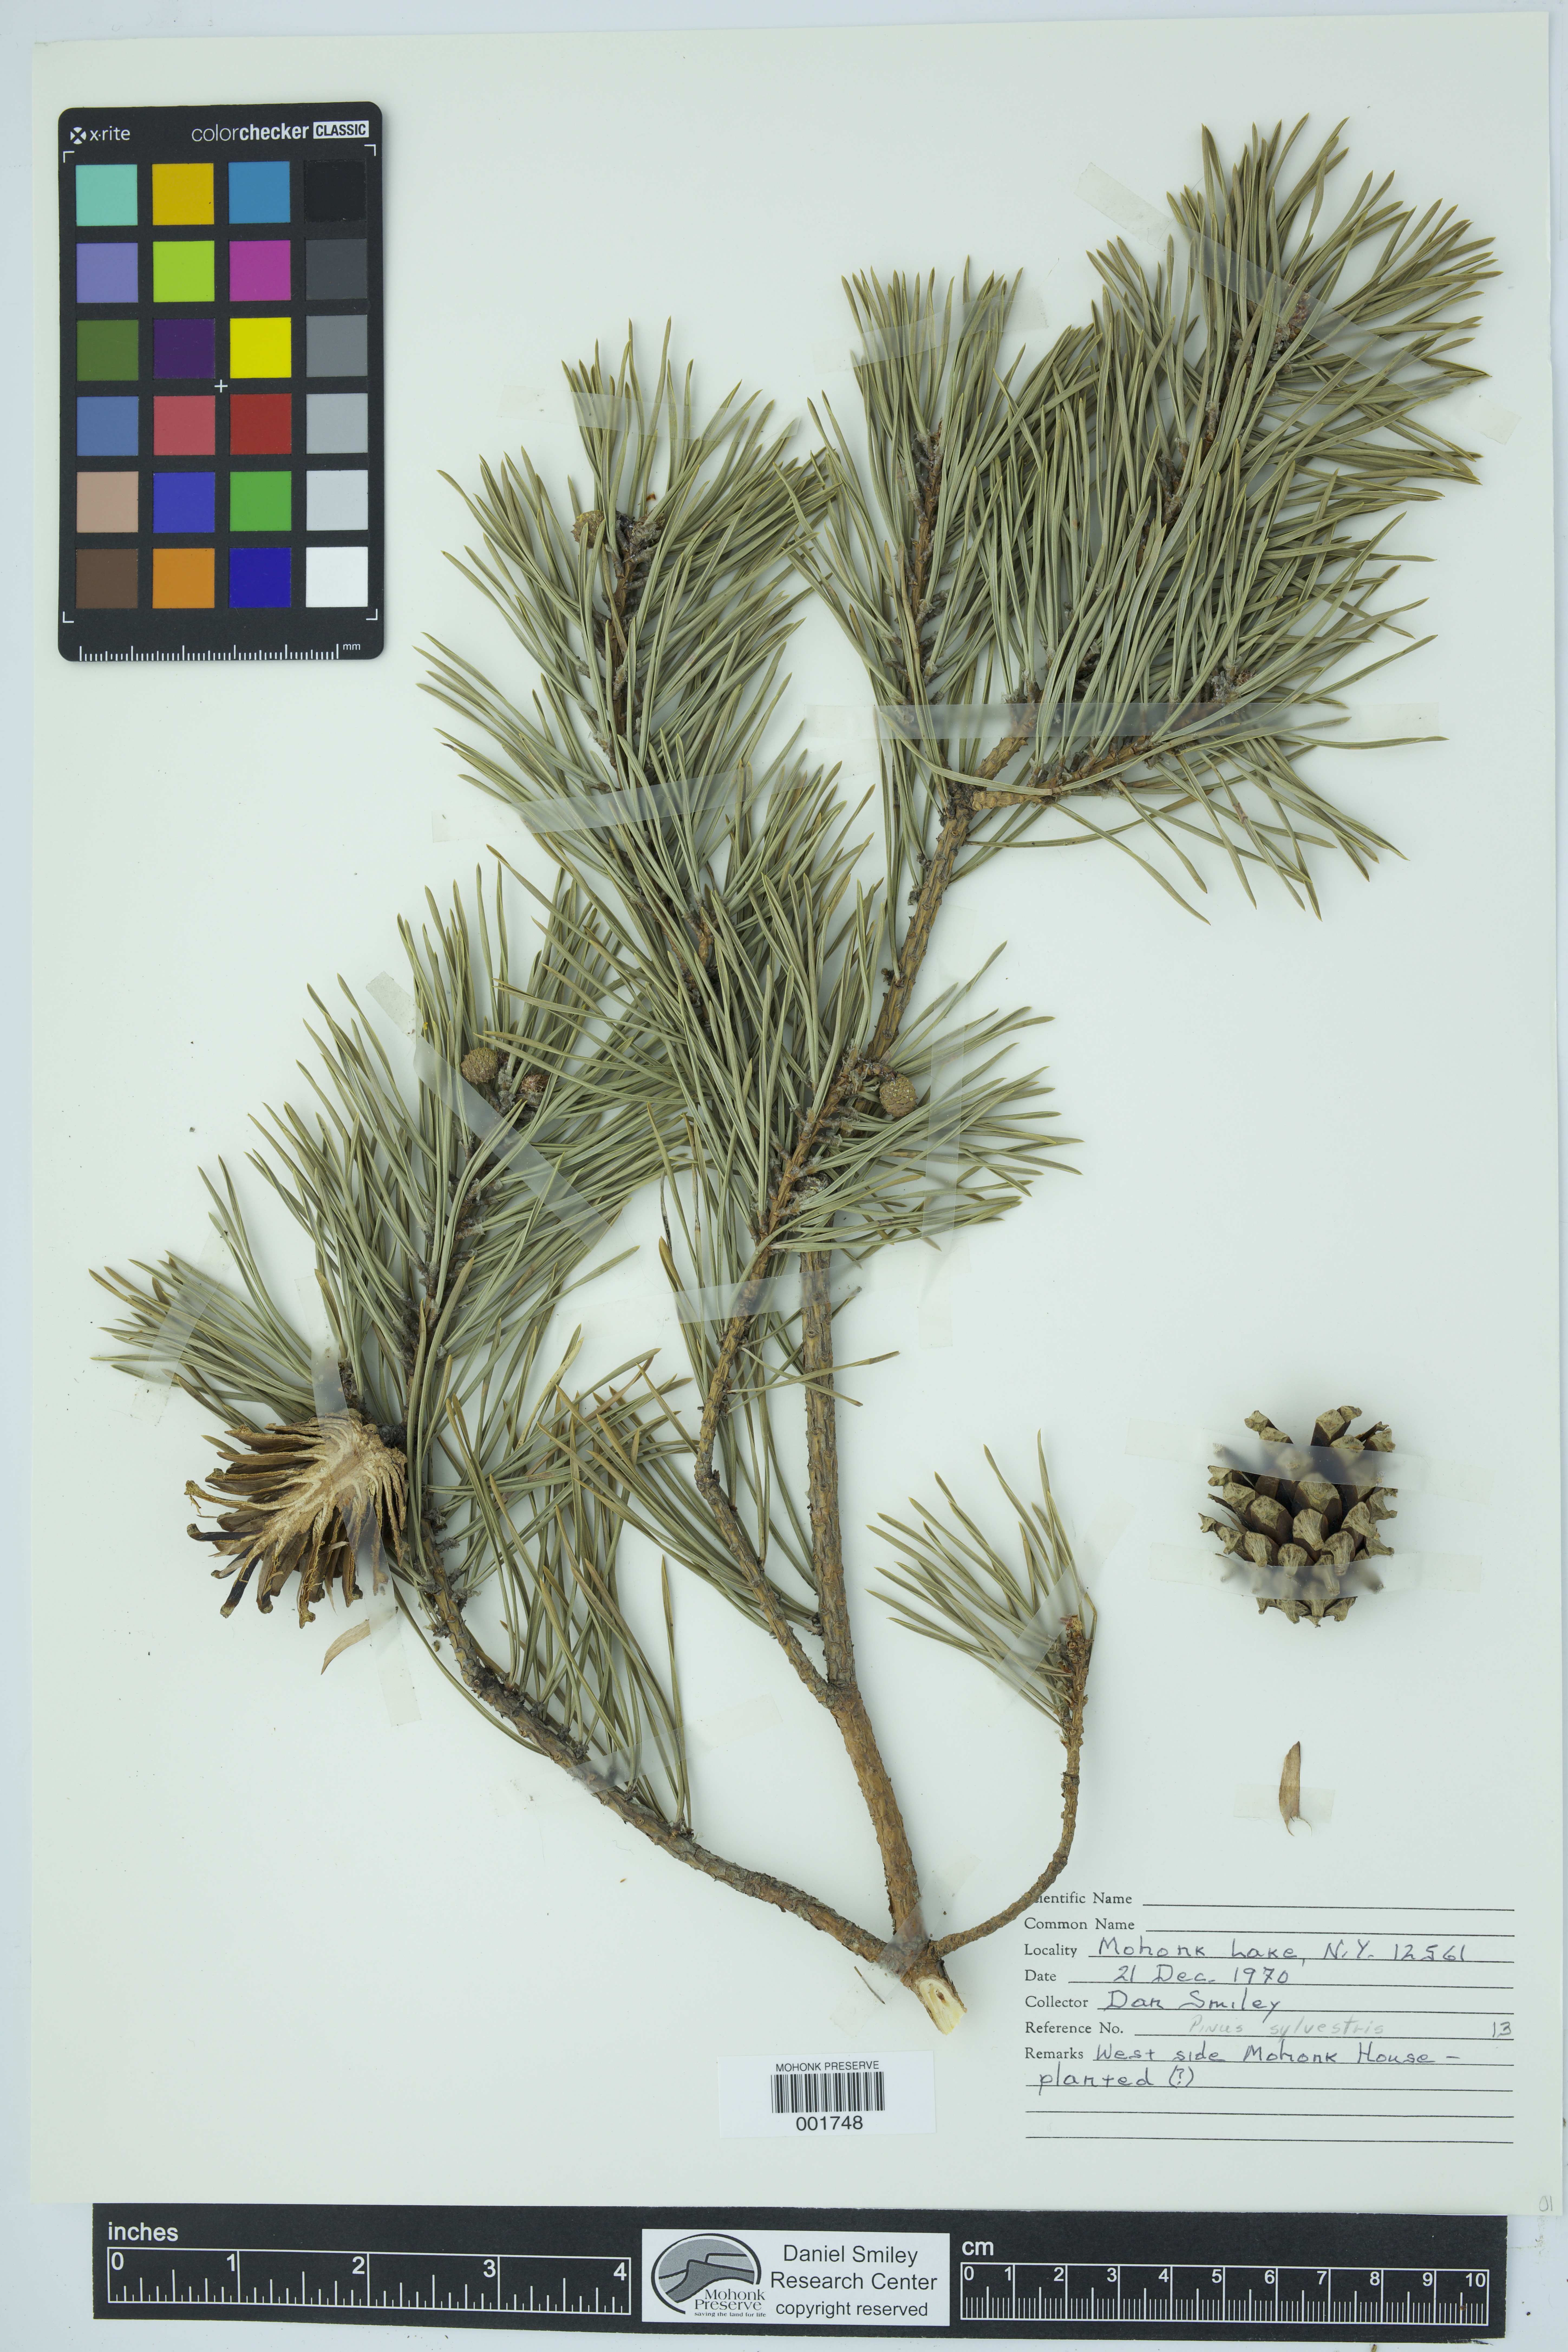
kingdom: Plantae
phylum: Tracheophyta
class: Pinopsida
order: Pinales
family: Pinaceae
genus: Pinus
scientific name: Pinus sylvestris
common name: Scots pine
